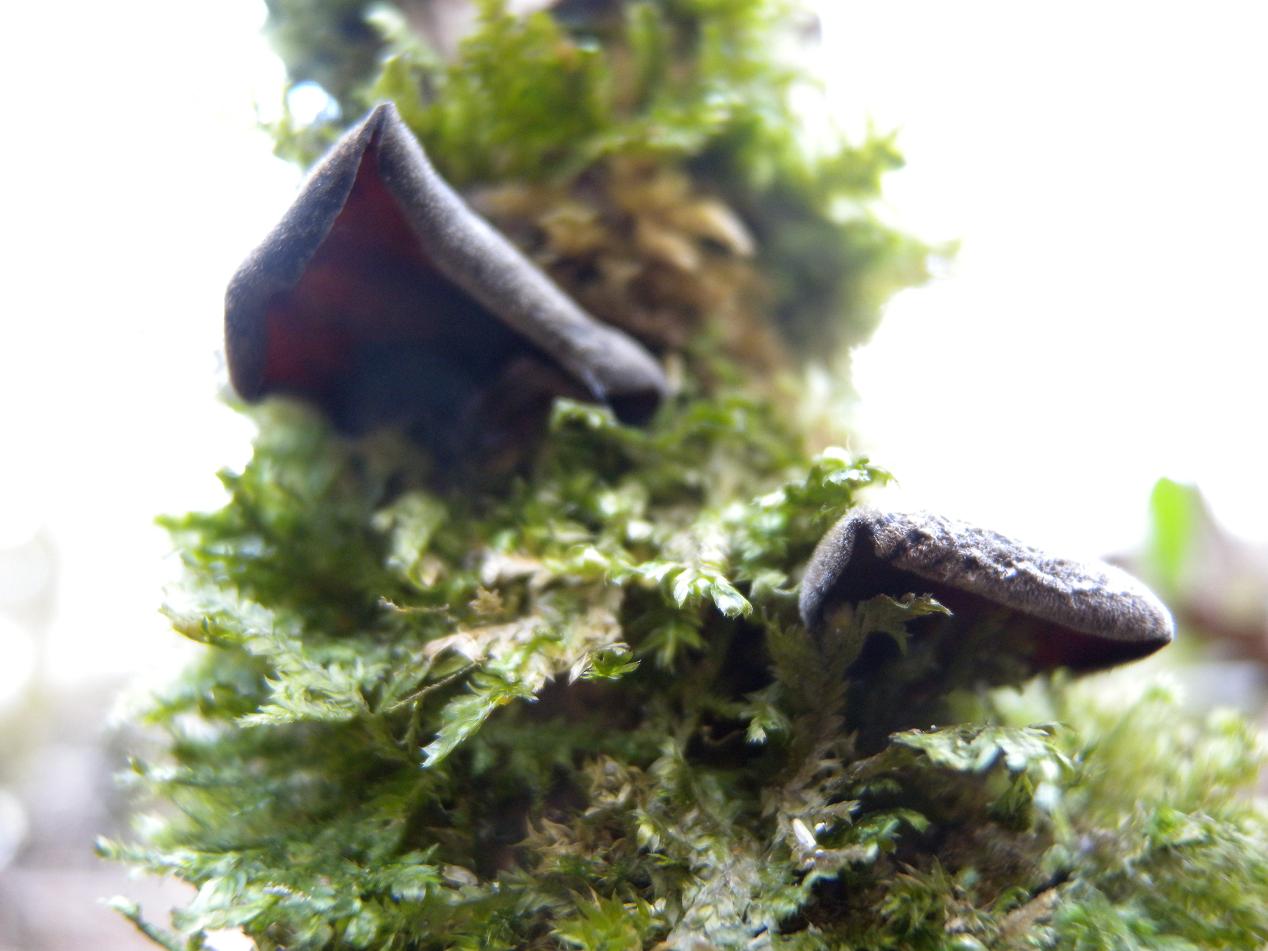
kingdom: Fungi
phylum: Basidiomycota
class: Agaricomycetes
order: Auriculariales
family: Auriculariaceae
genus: Auricularia
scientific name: Auricularia auricula-judae
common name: almindelig judasøre
